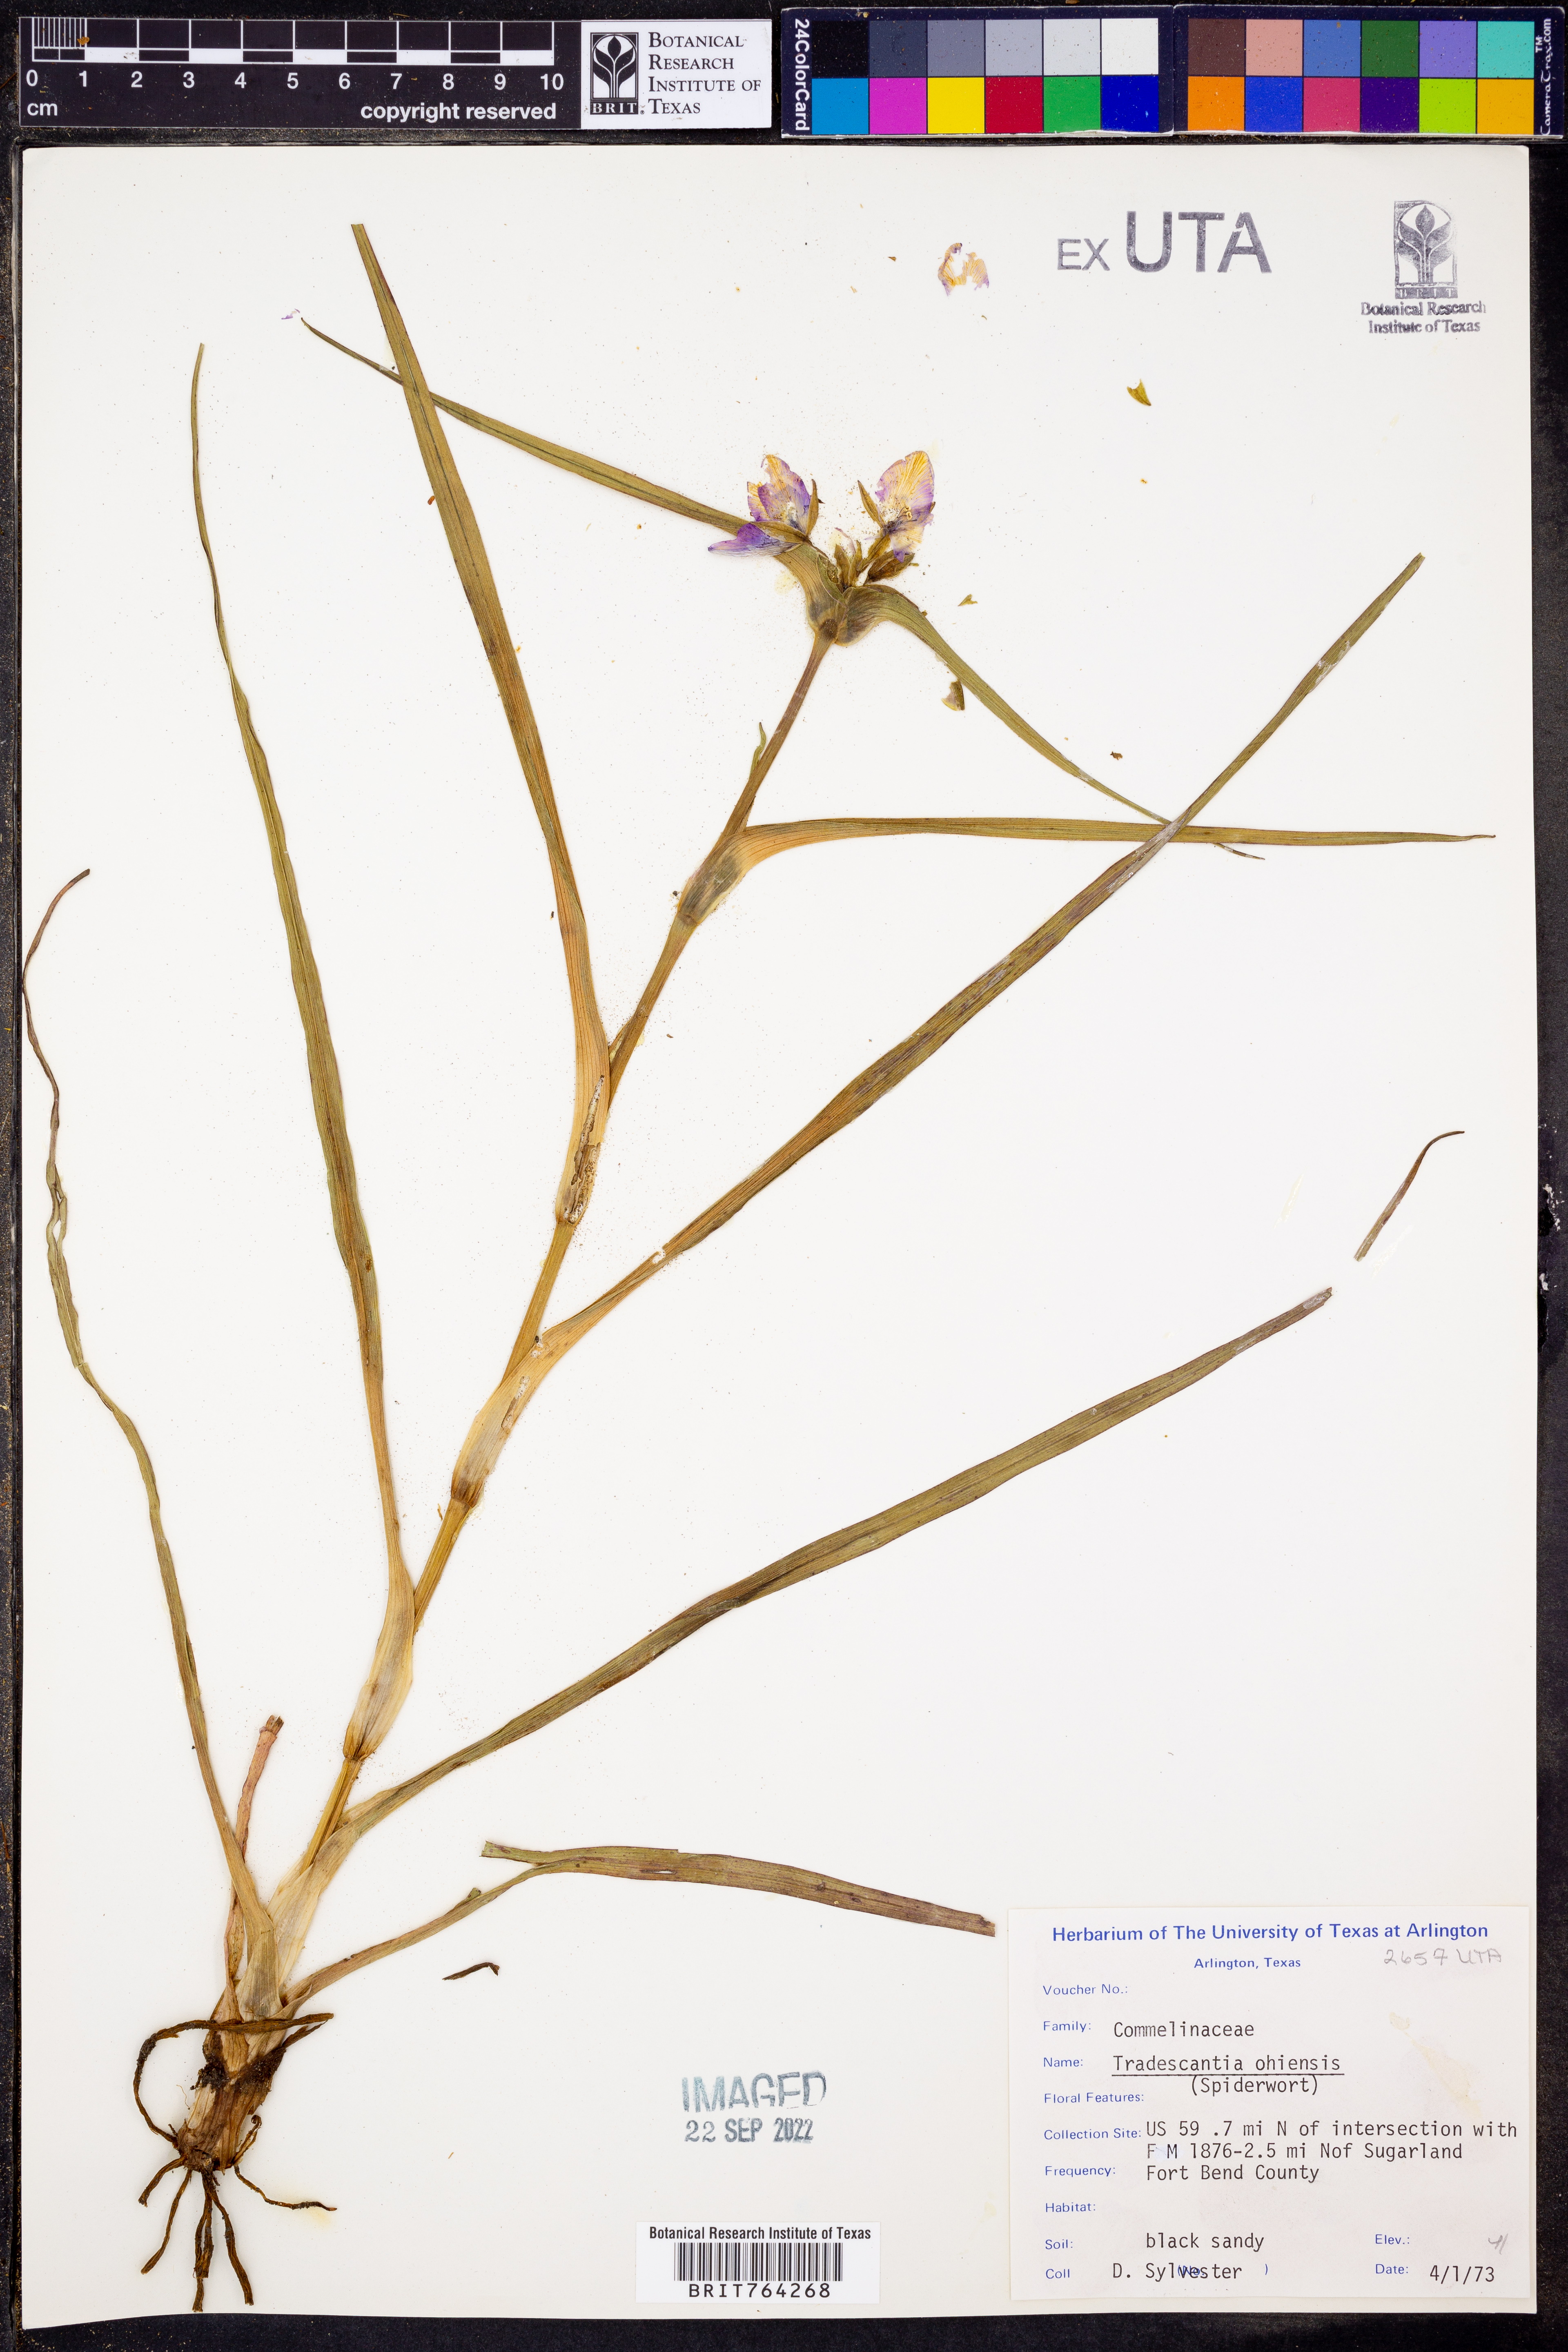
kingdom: Plantae
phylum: Tracheophyta
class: Liliopsida
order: Commelinales
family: Commelinaceae
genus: Tradescantia
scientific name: Tradescantia ohiensis
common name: Ohio spiderwort
